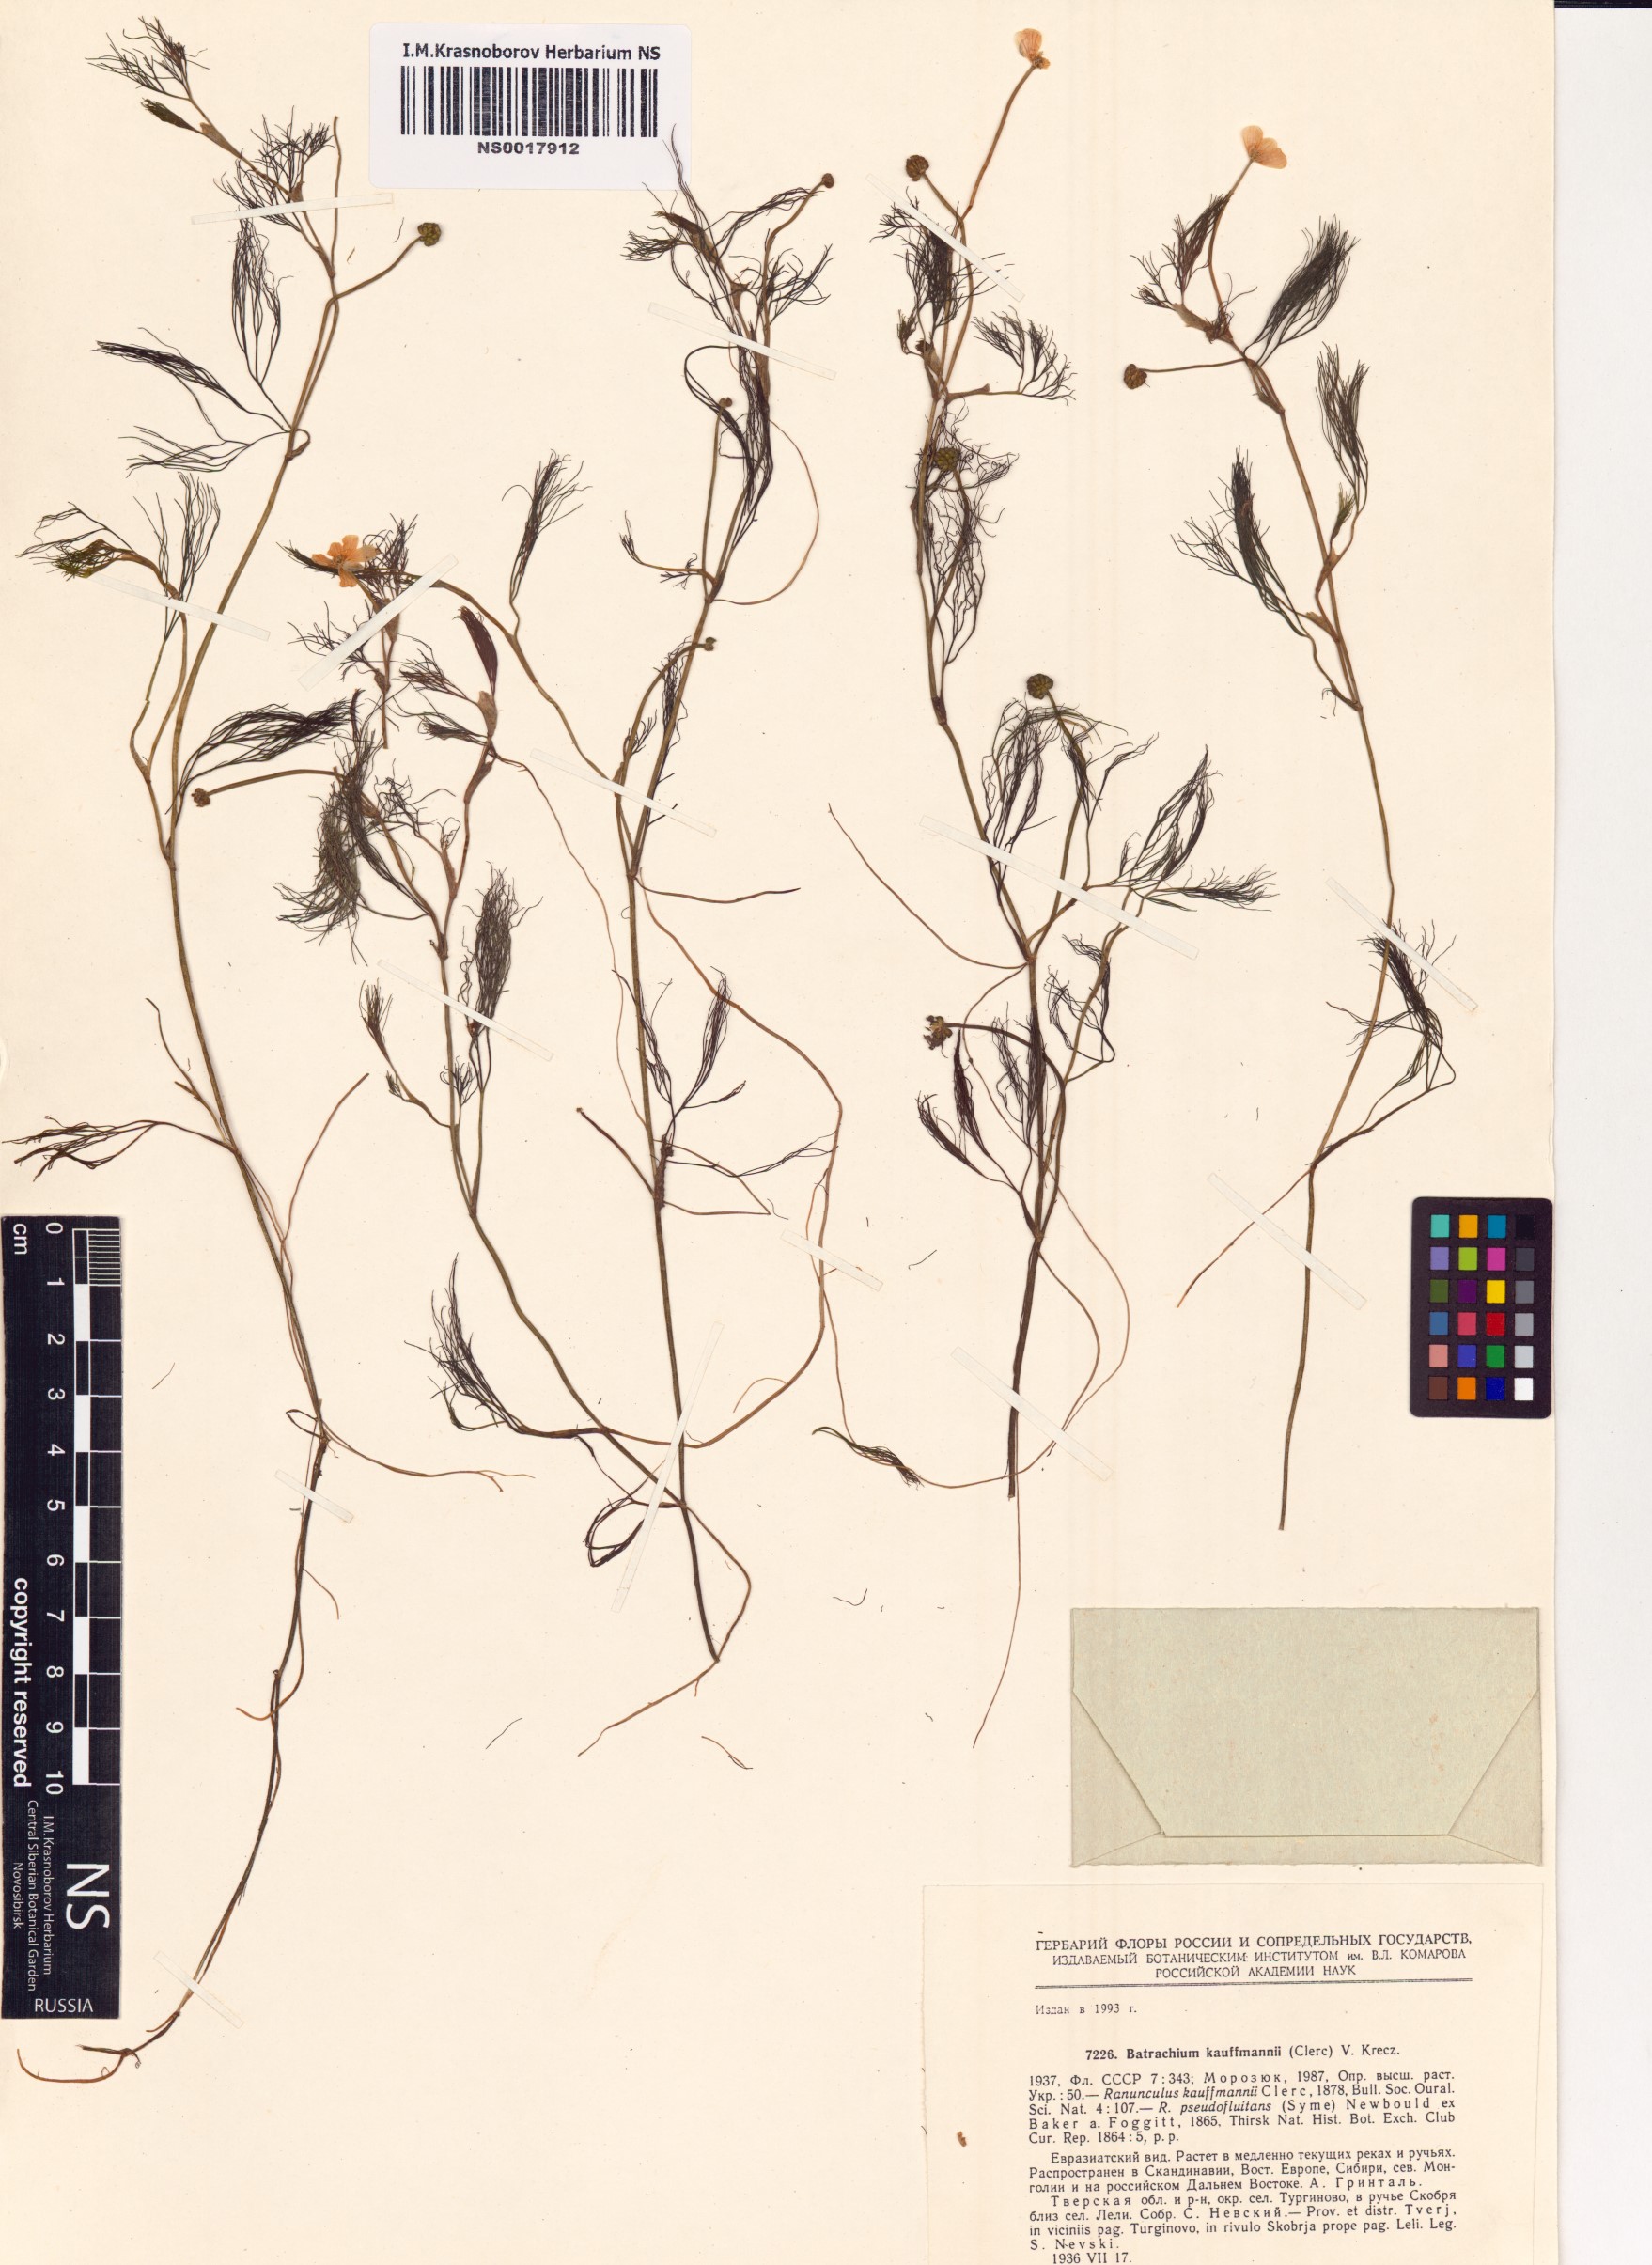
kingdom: Plantae
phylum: Tracheophyta
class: Magnoliopsida
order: Ranunculales
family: Ranunculaceae
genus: Ranunculus
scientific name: Ranunculus kauffmanii
